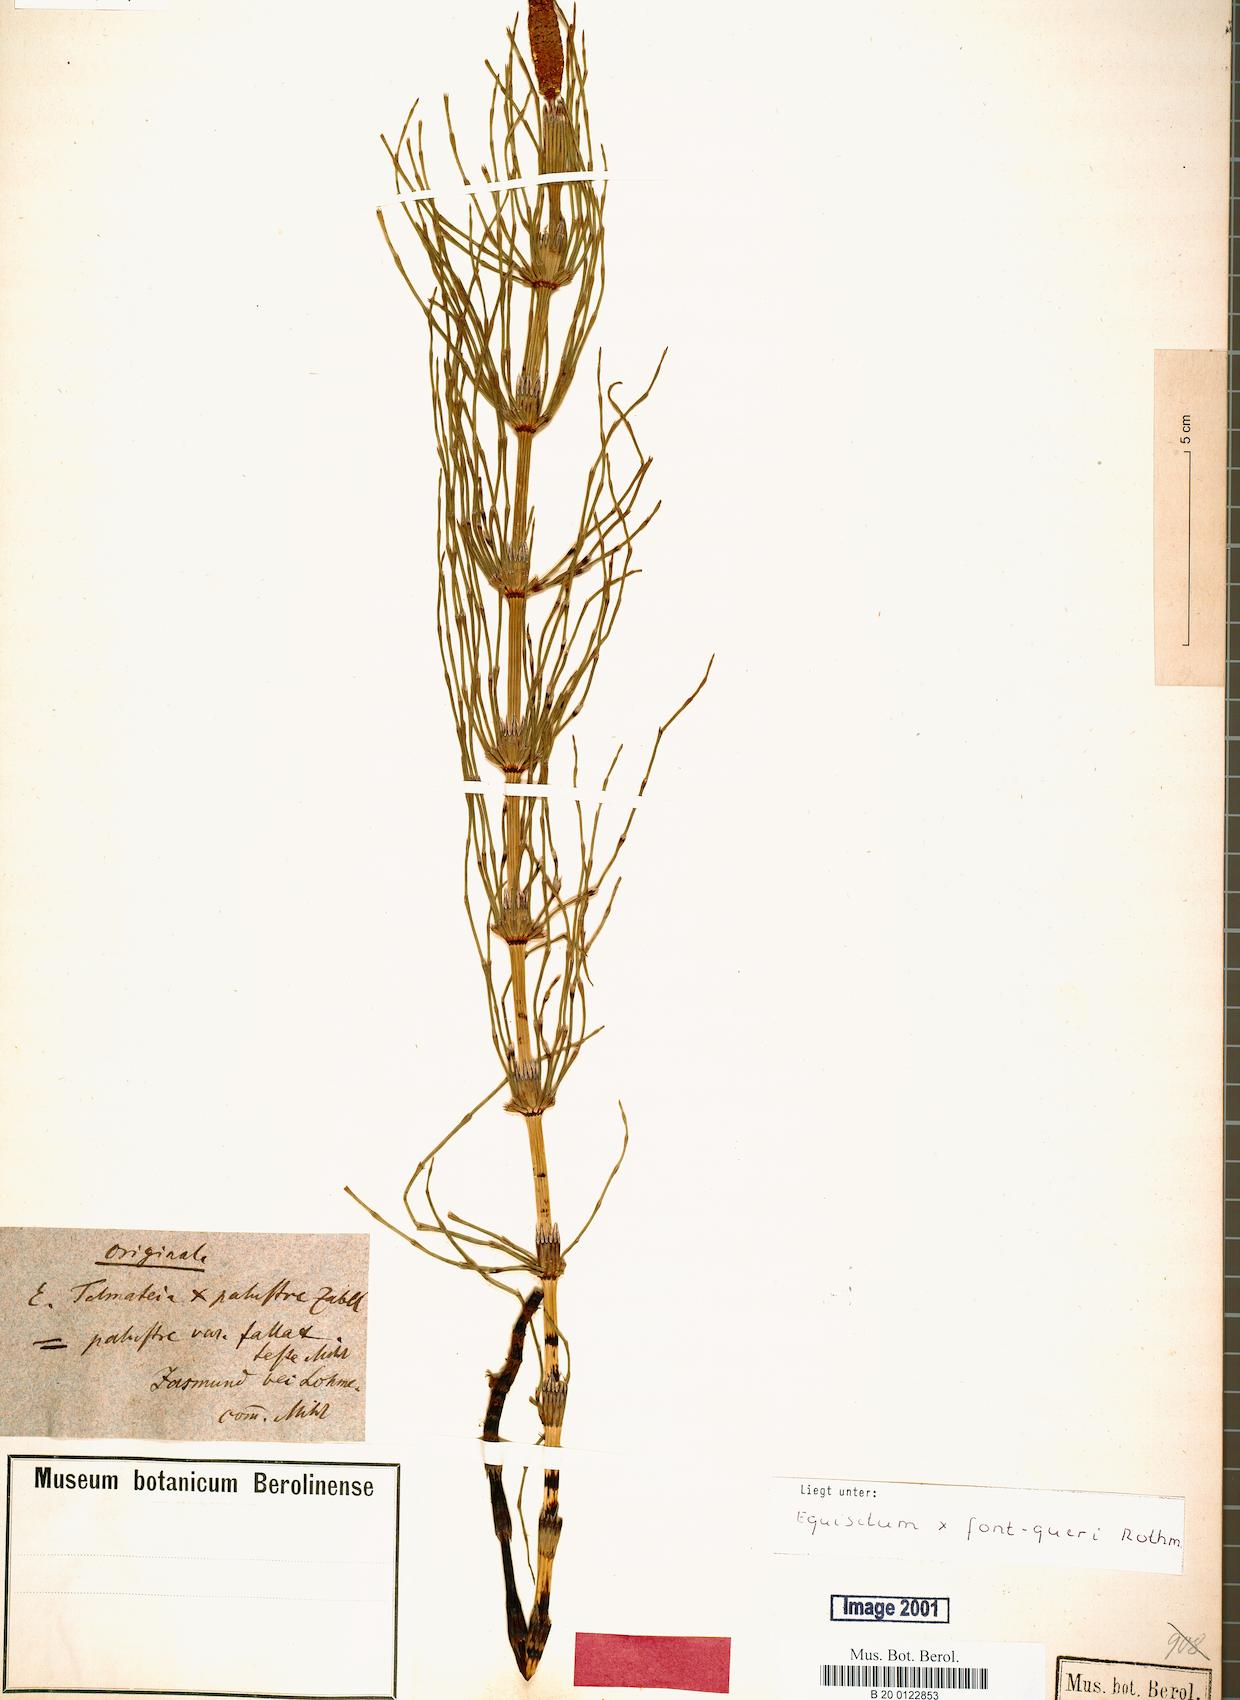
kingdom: Plantae
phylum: Tracheophyta
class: Polypodiopsida
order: Equisetales
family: Equisetaceae
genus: Equisetum
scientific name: Equisetum font-queri
